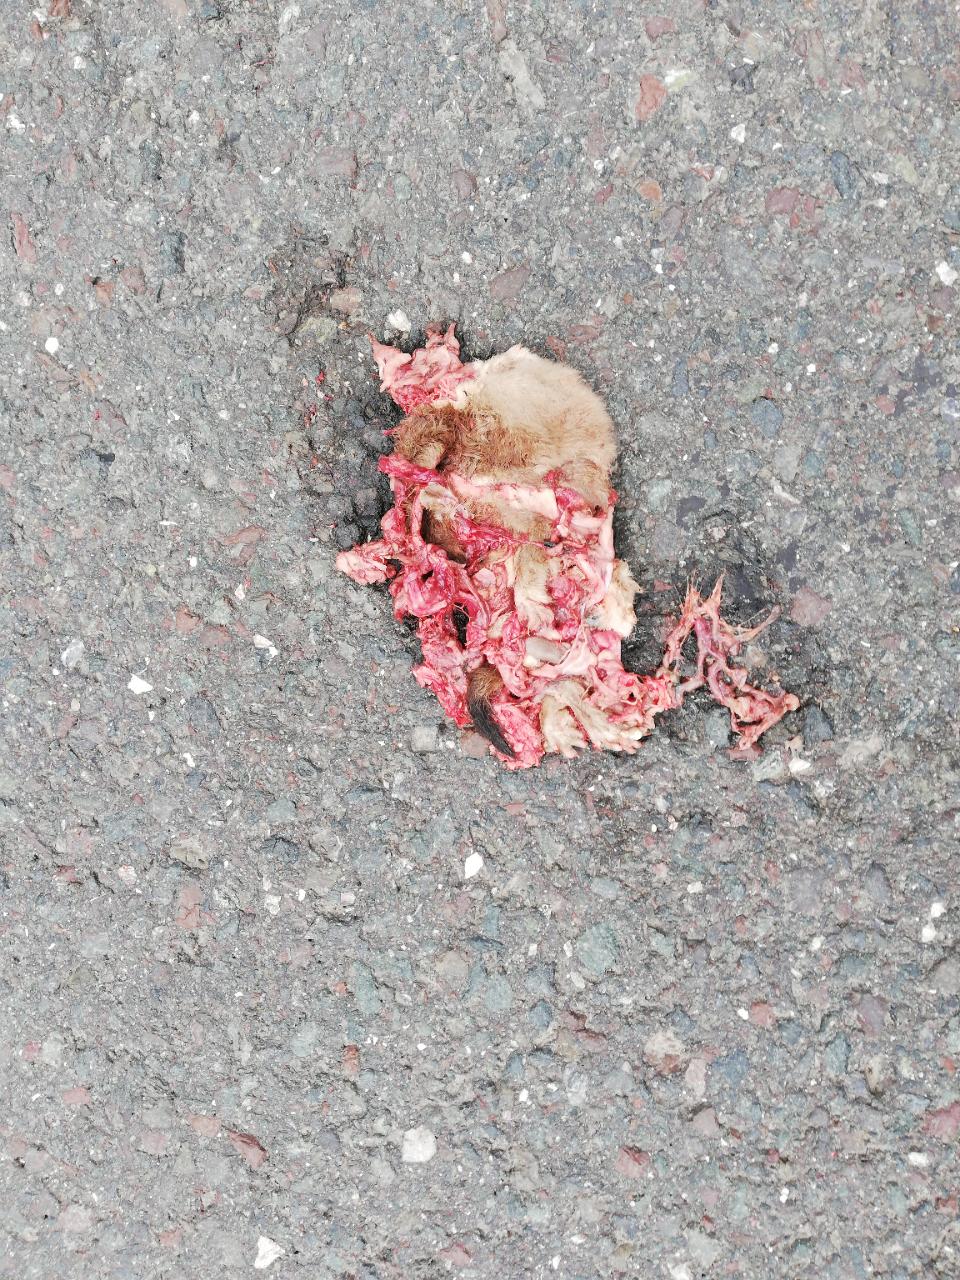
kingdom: Animalia
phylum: Chordata
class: Mammalia
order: Carnivora
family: Mustelidae
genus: Mustela
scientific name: Mustela erminea
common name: Stoat
